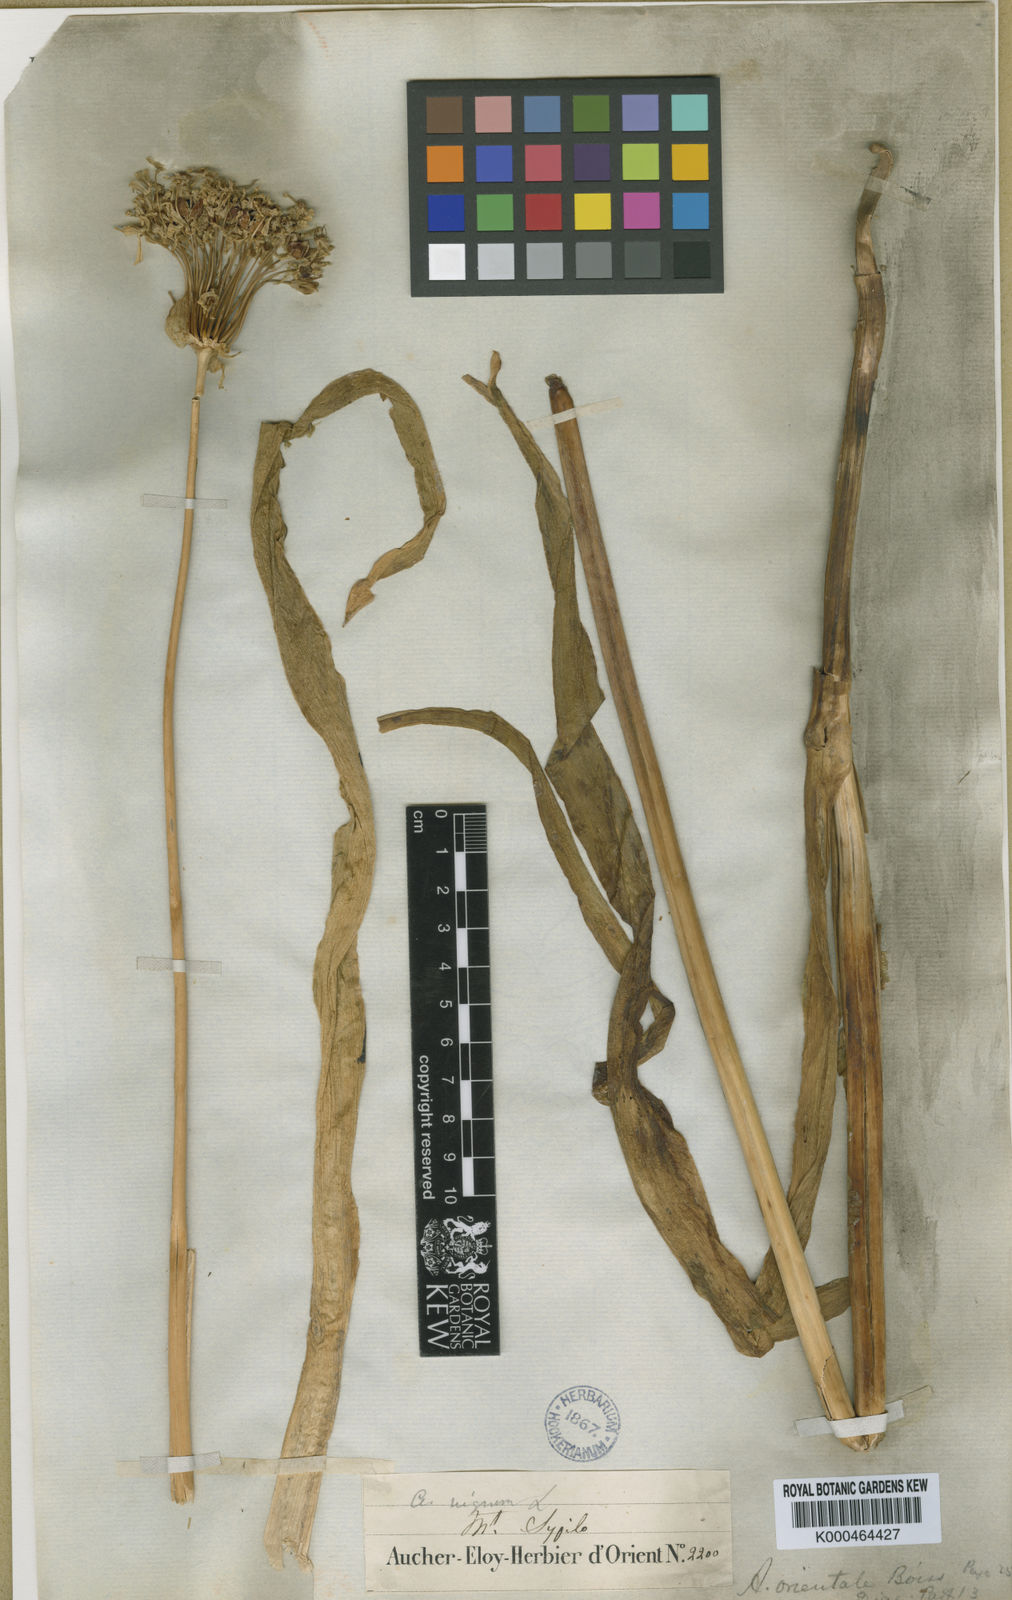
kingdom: Plantae
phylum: Tracheophyta
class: Liliopsida
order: Asparagales
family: Amaryllidaceae
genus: Allium
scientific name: Allium orientale
